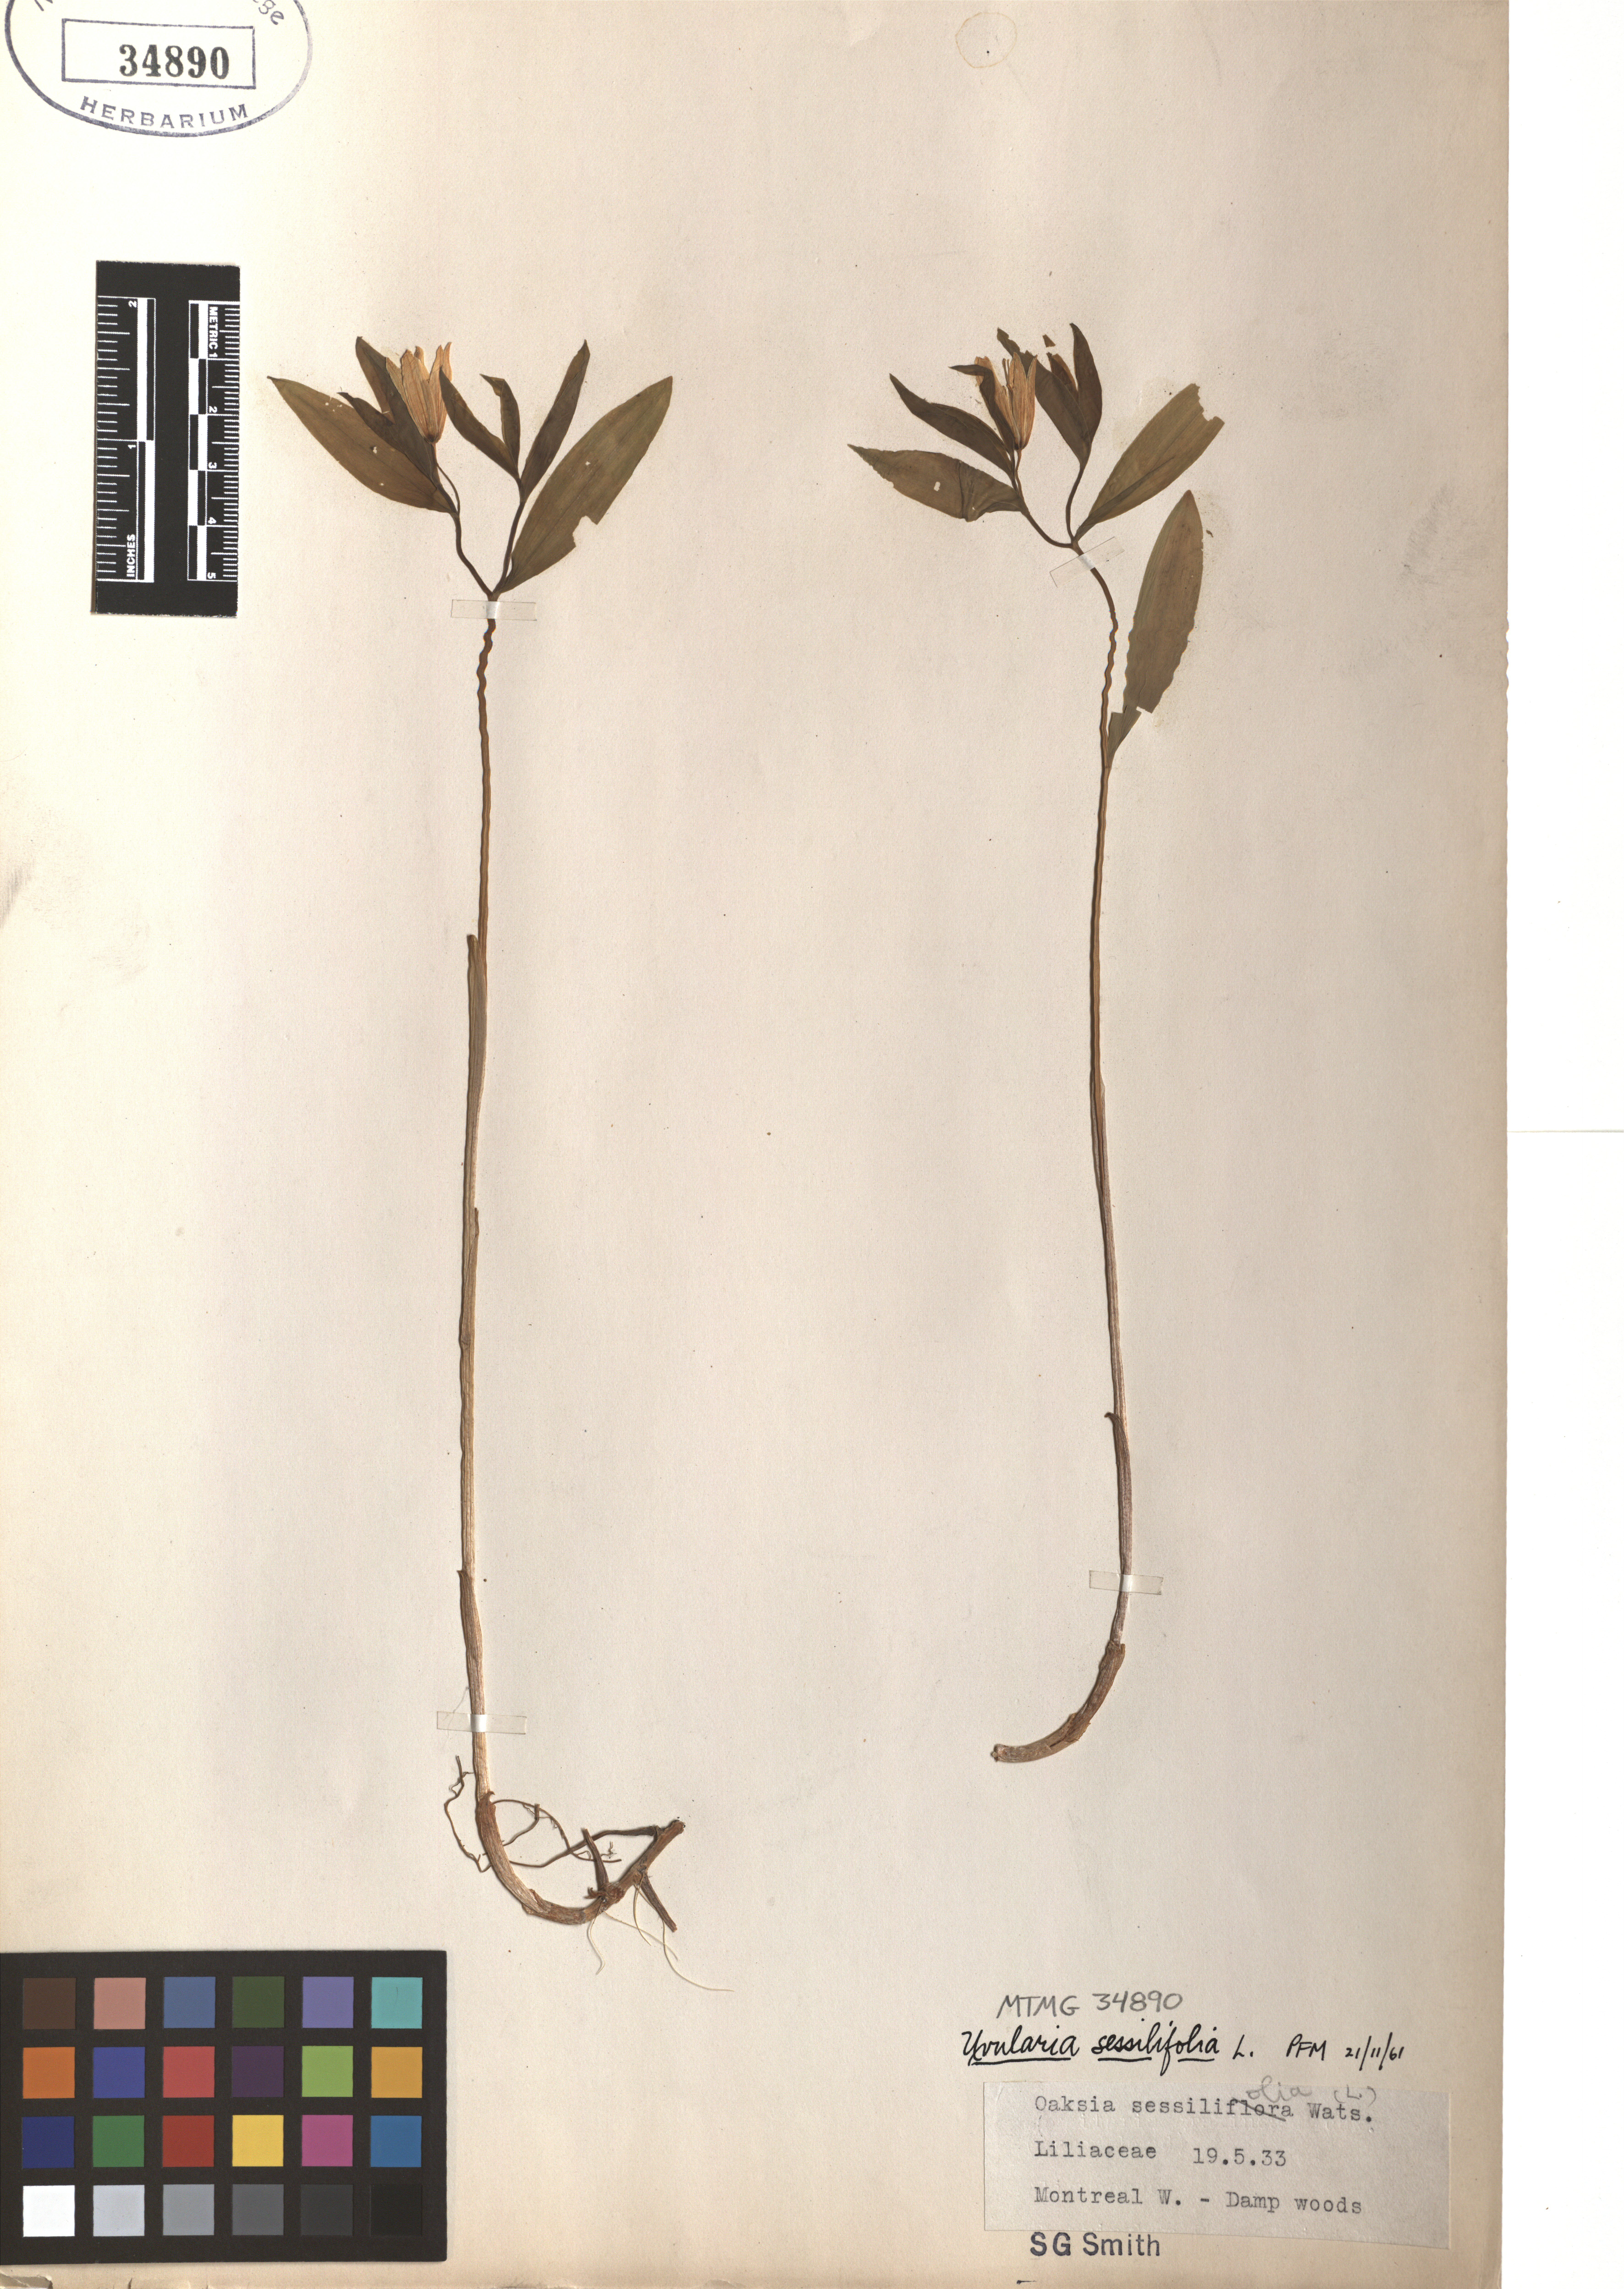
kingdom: Plantae
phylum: Tracheophyta
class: Liliopsida
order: Liliales
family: Colchicaceae
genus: Uvularia
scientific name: Uvularia sessilifolia
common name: Straw-lily
